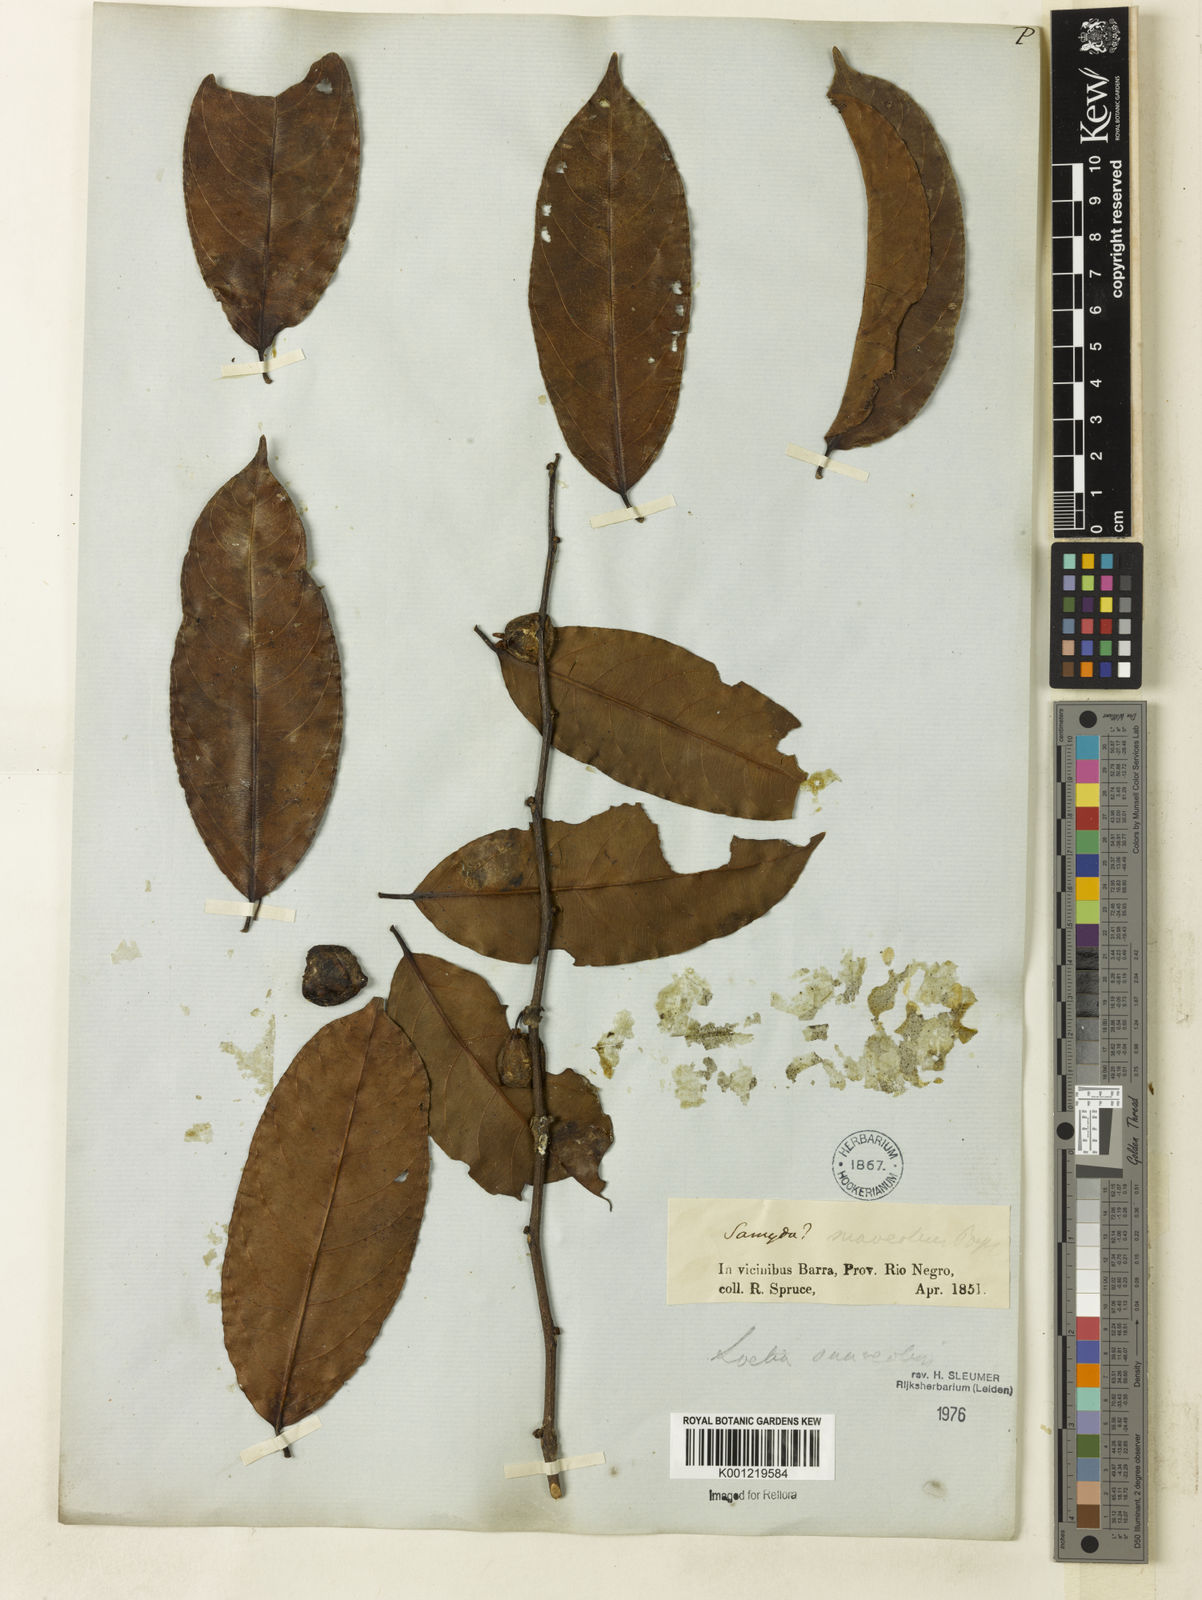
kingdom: Plantae
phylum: Tracheophyta
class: Magnoliopsida
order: Malpighiales
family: Salicaceae
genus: Casearia
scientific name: Casearia suaveolens
